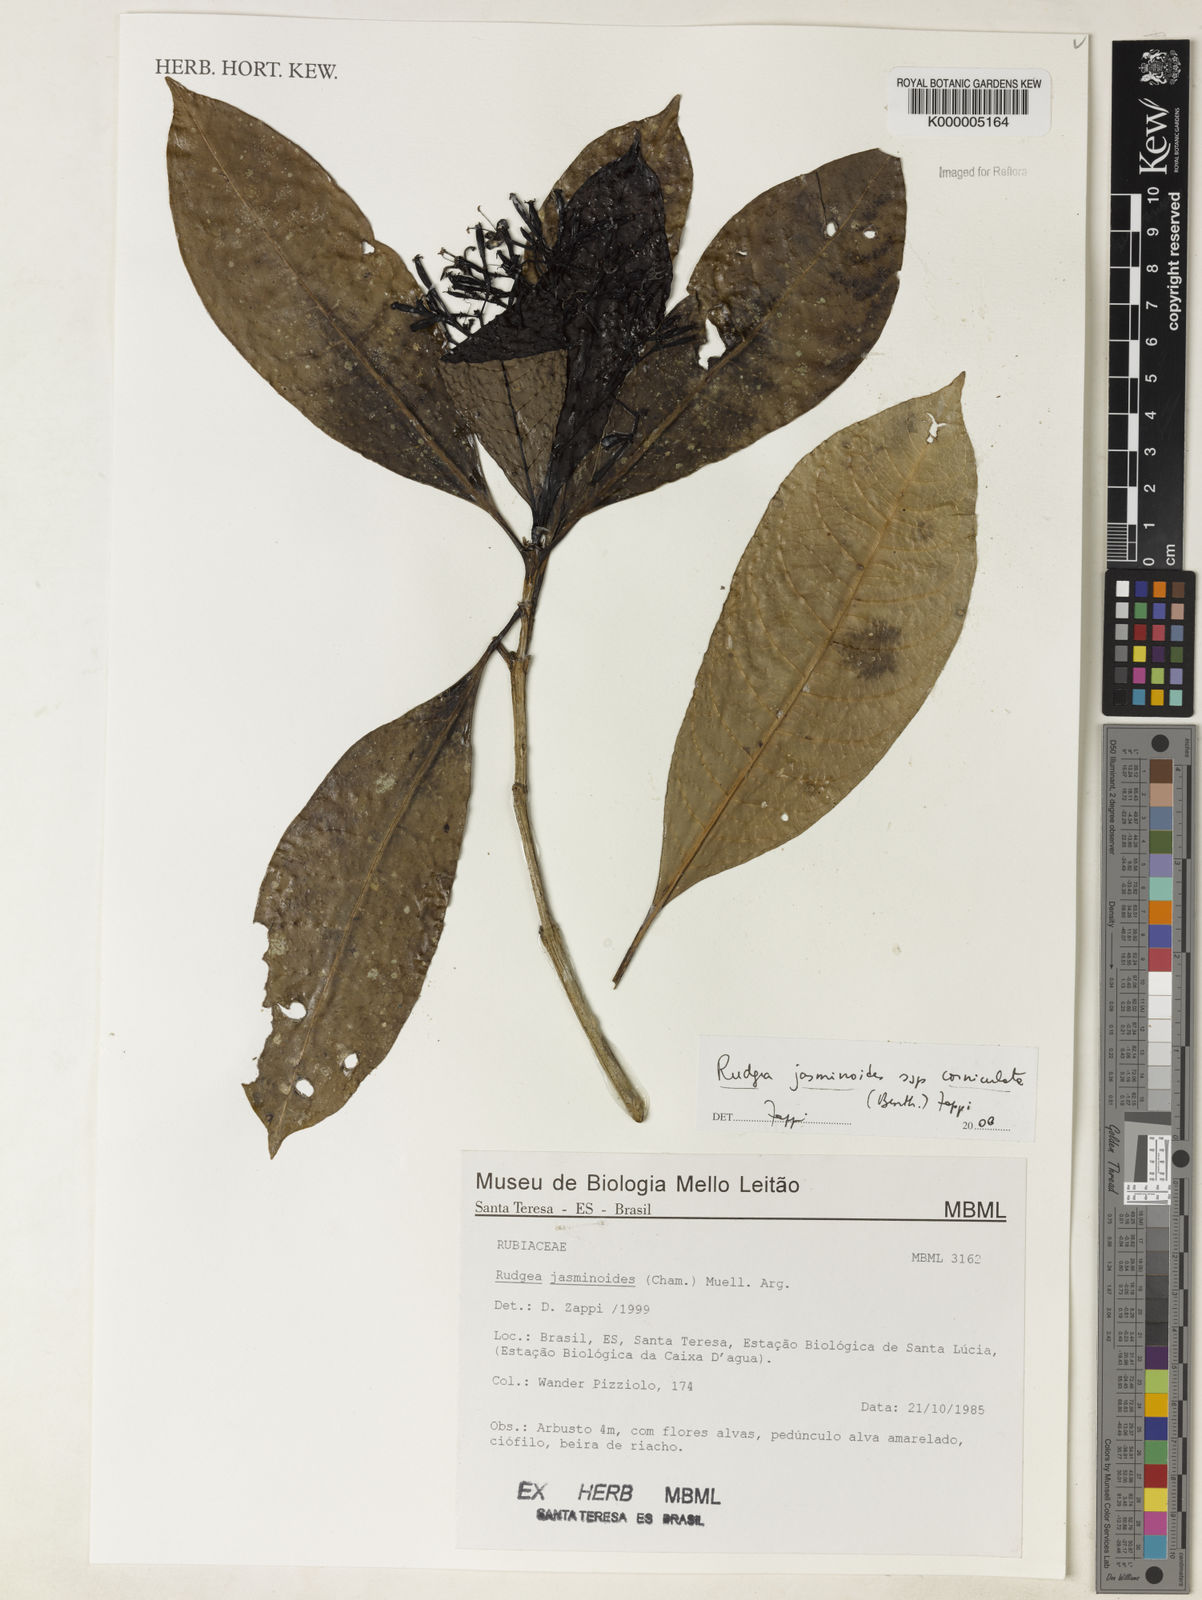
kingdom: Plantae
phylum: Tracheophyta
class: Magnoliopsida
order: Gentianales
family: Rubiaceae
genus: Rudgea
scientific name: Rudgea jasminoides
